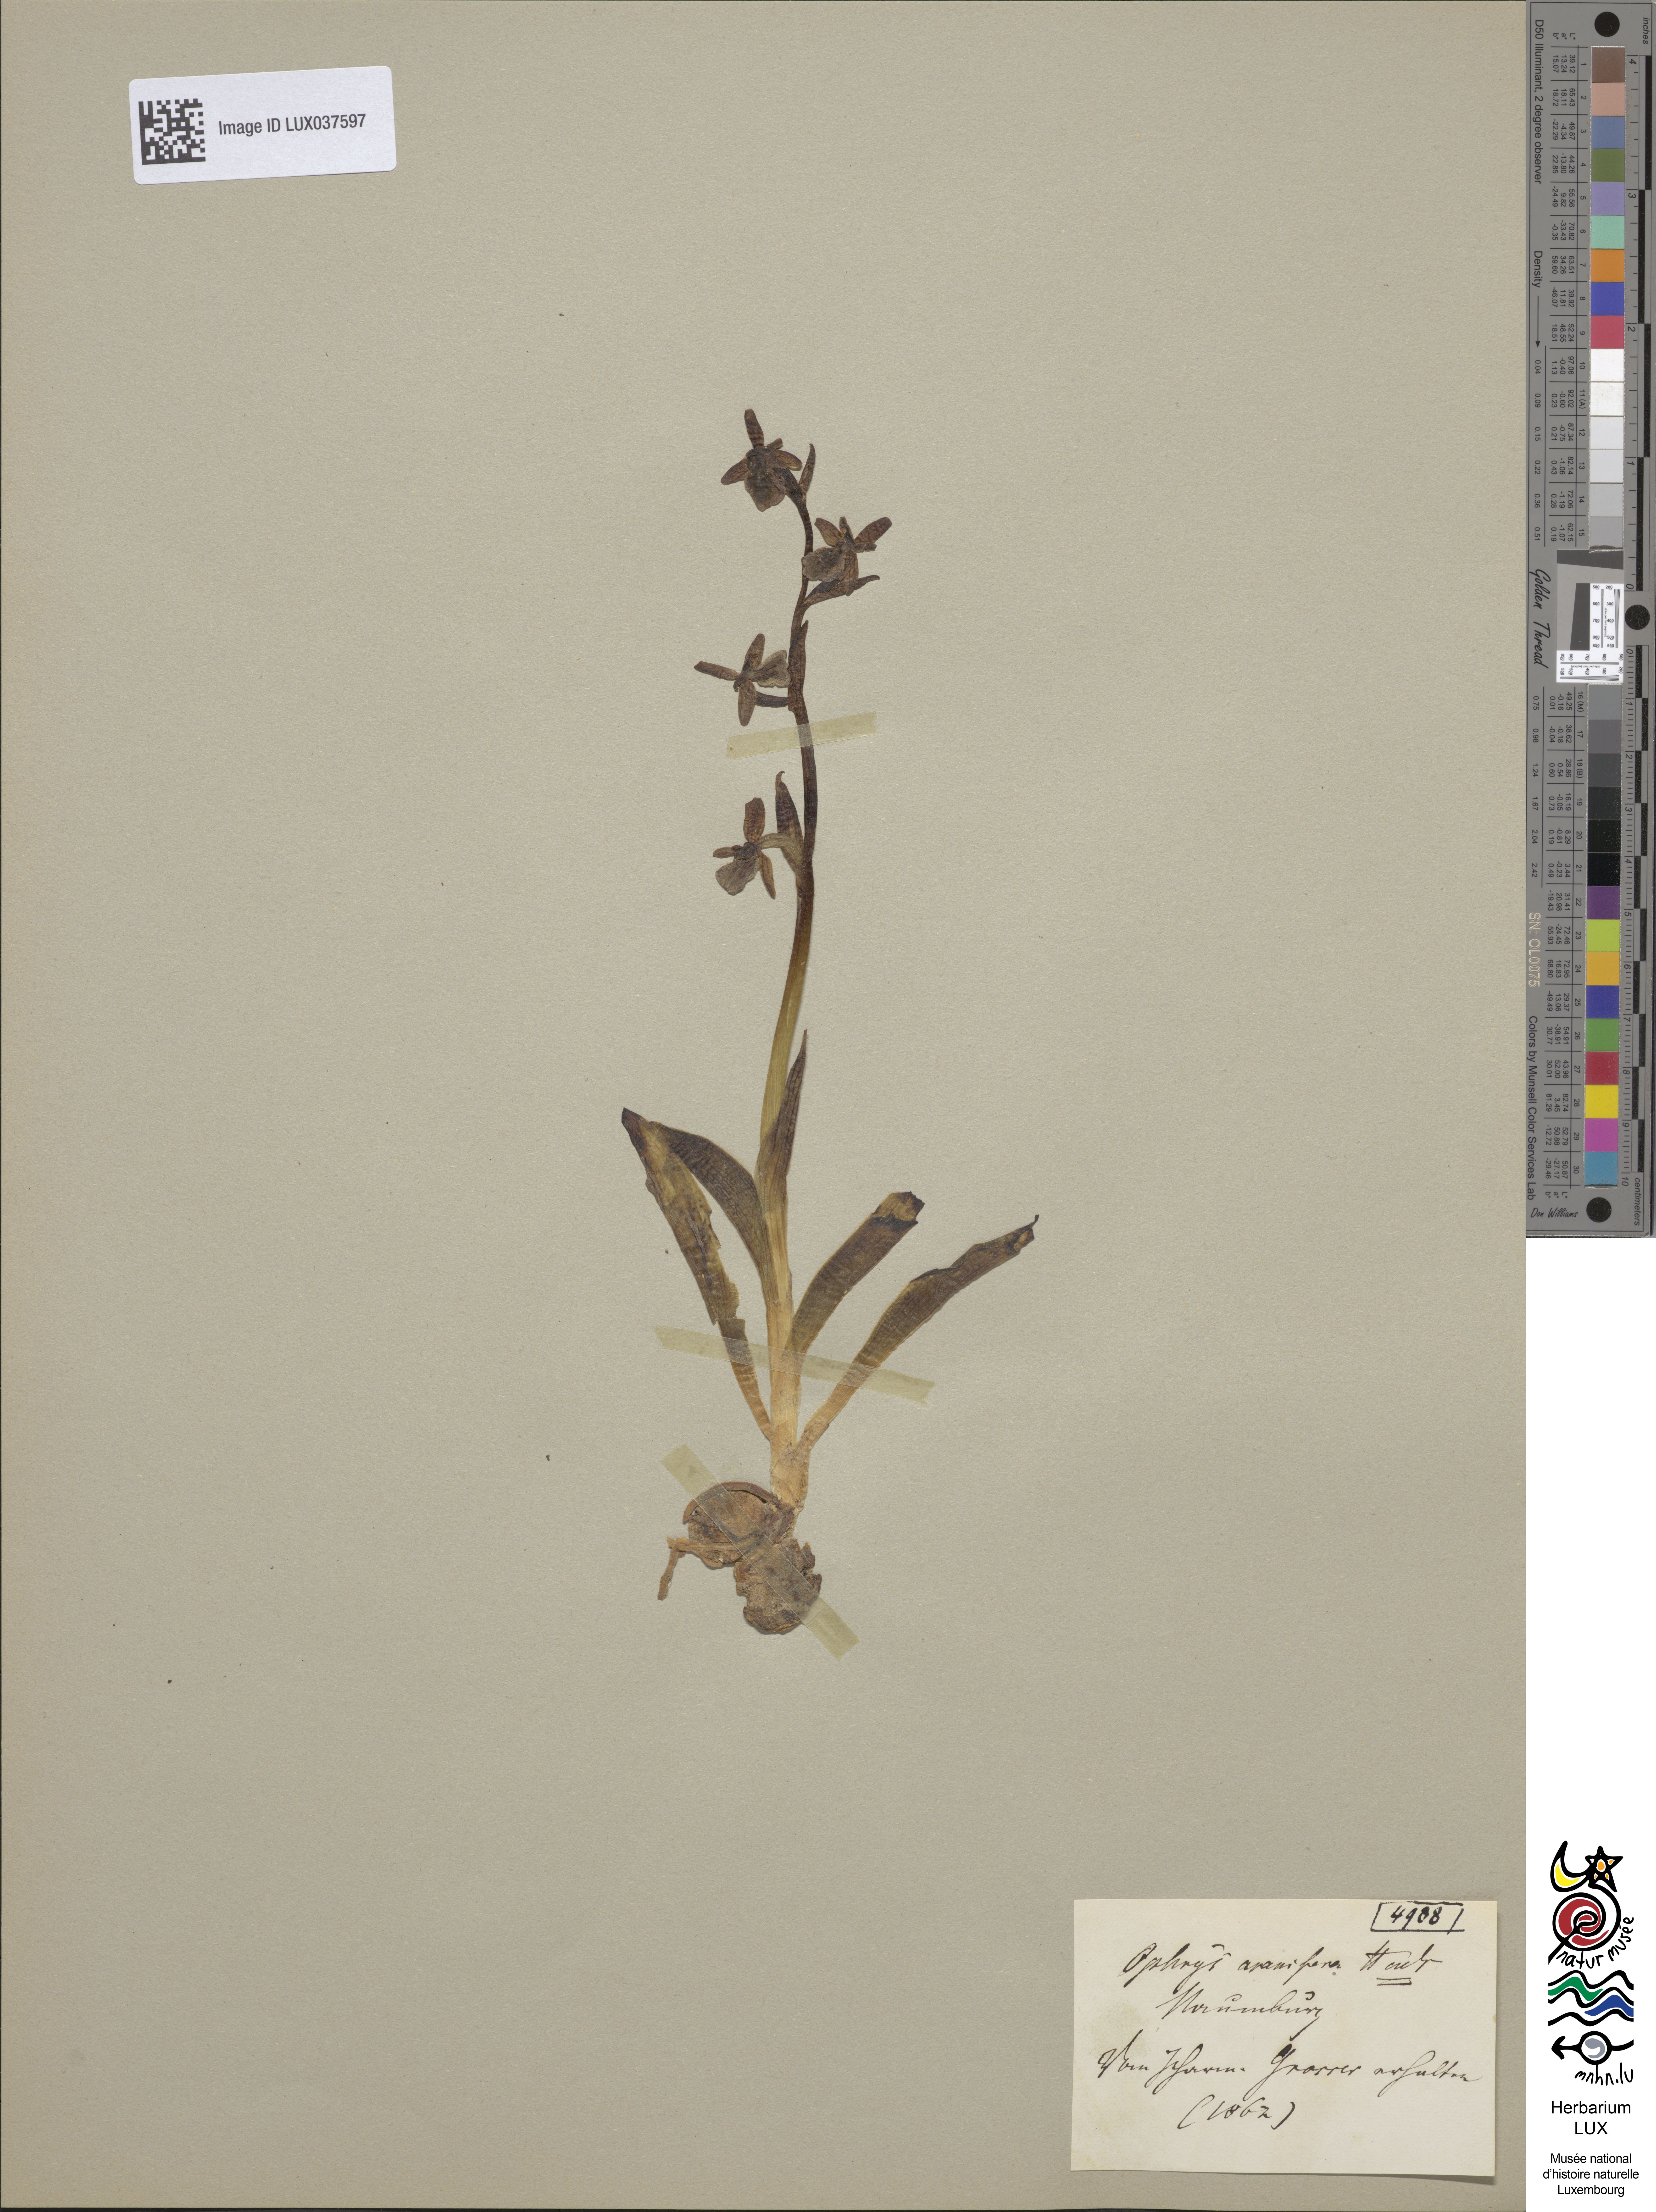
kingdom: Plantae
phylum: Tracheophyta
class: Liliopsida
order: Asparagales
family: Orchidaceae
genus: Ophrys
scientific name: Ophrys sphegodes
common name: Early spider-orchid
